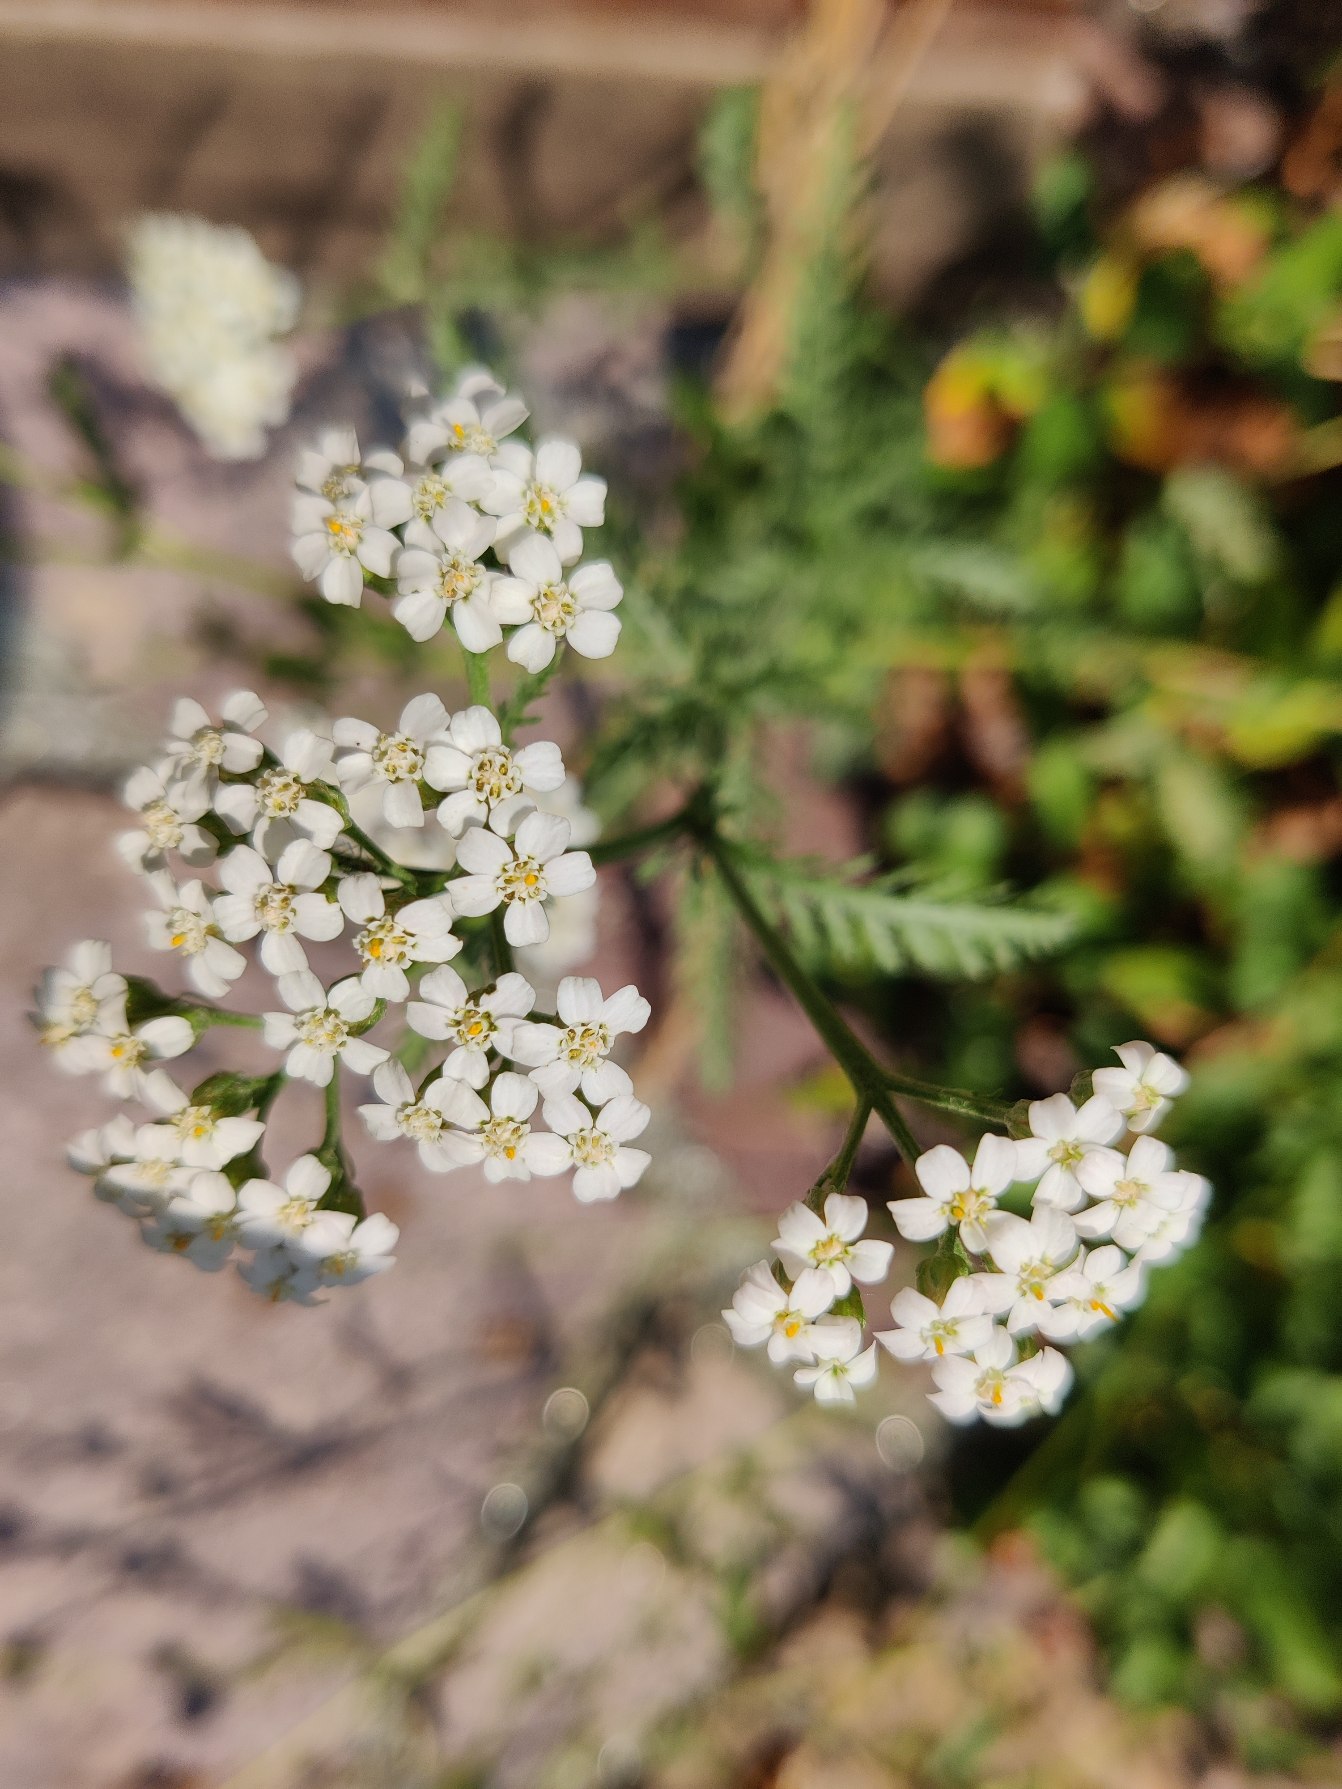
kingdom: Plantae
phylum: Tracheophyta
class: Magnoliopsida
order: Asterales
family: Asteraceae
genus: Achillea
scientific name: Achillea millefolium
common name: Almindelig røllike
